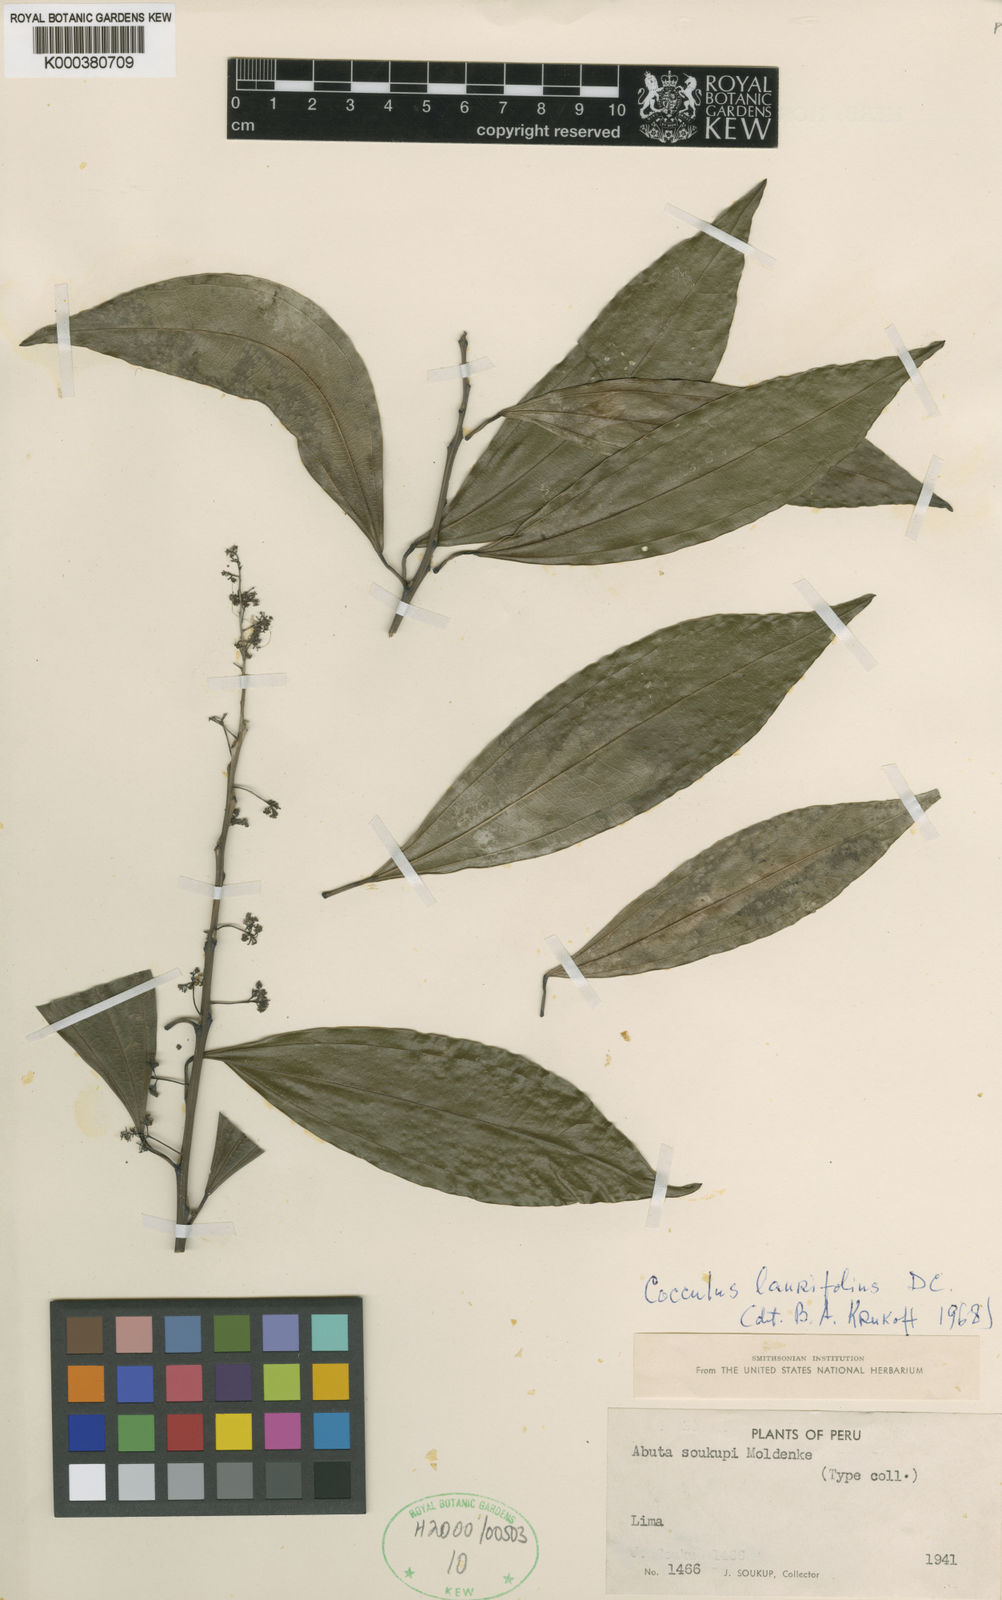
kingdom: Plantae
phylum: Tracheophyta
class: Magnoliopsida
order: Ranunculales
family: Menispermaceae
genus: Cocculus
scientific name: Cocculus laurifolius
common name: Laurel-leaf snailseed
